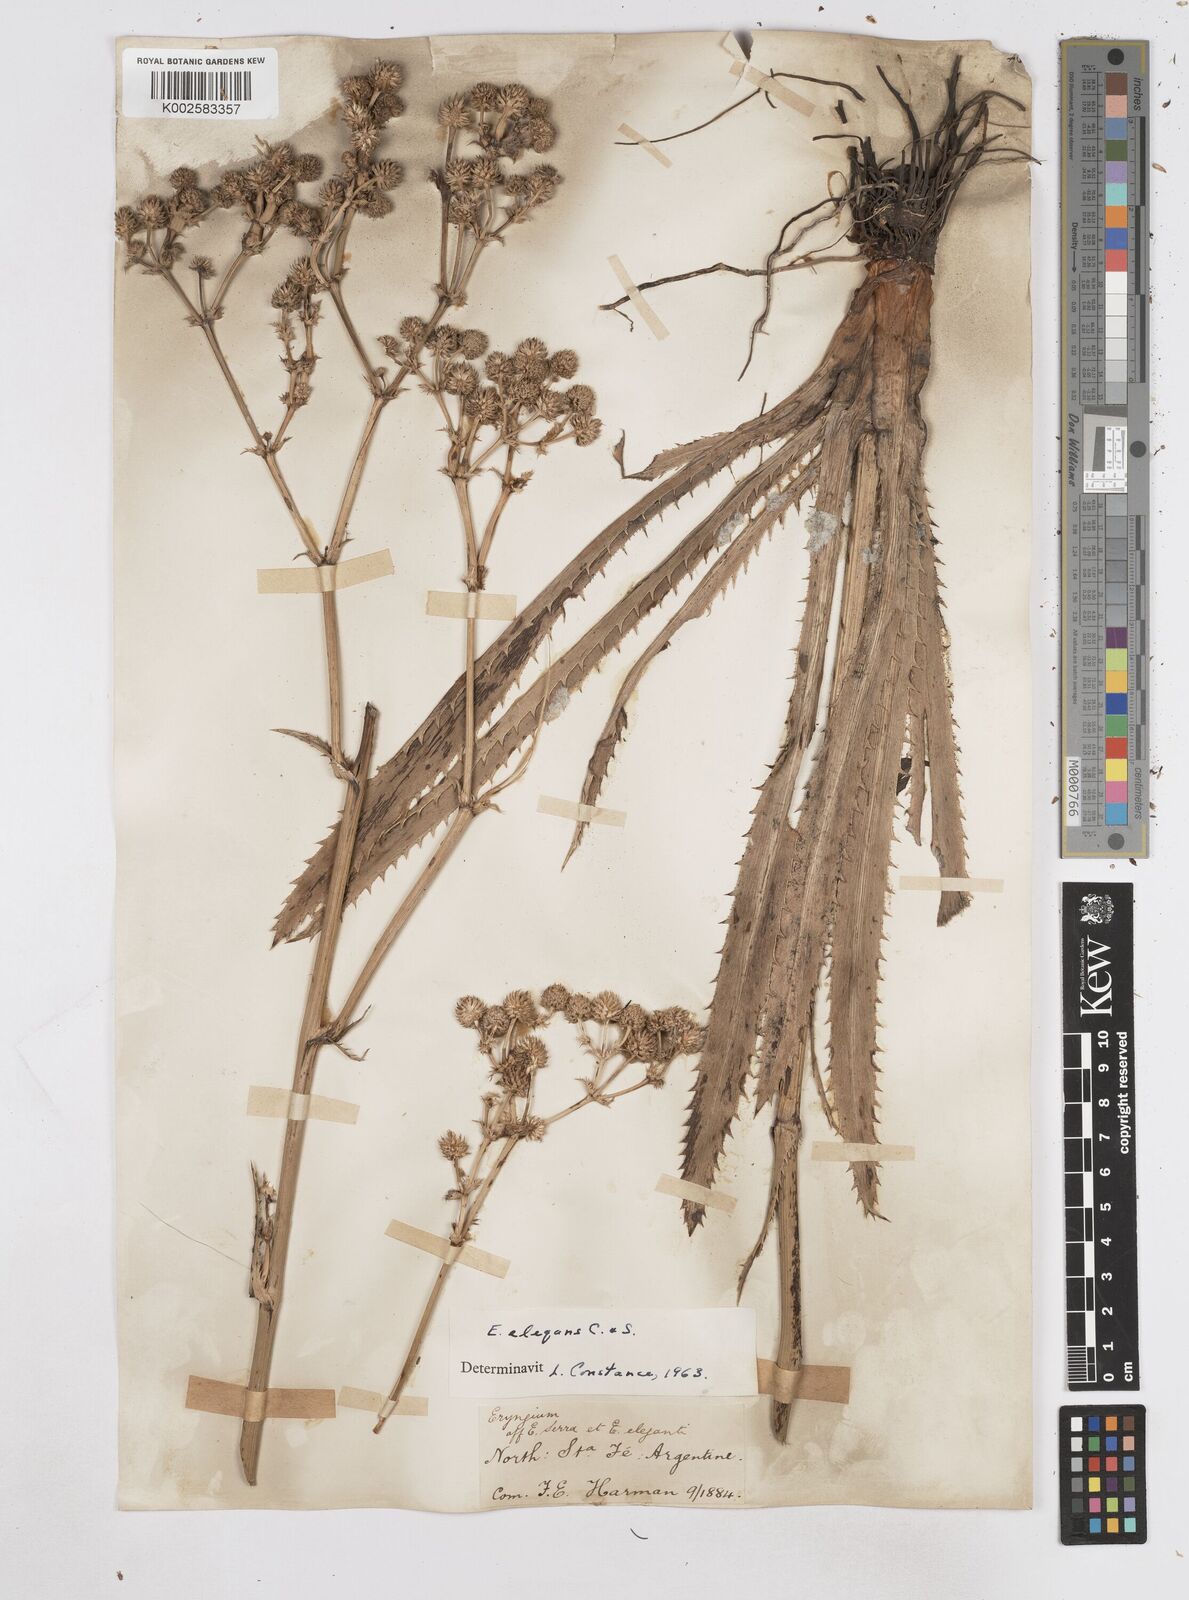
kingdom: Plantae
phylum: Tracheophyta
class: Magnoliopsida
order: Apiales
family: Apiaceae
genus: Eryngium
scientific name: Eryngium elegans
